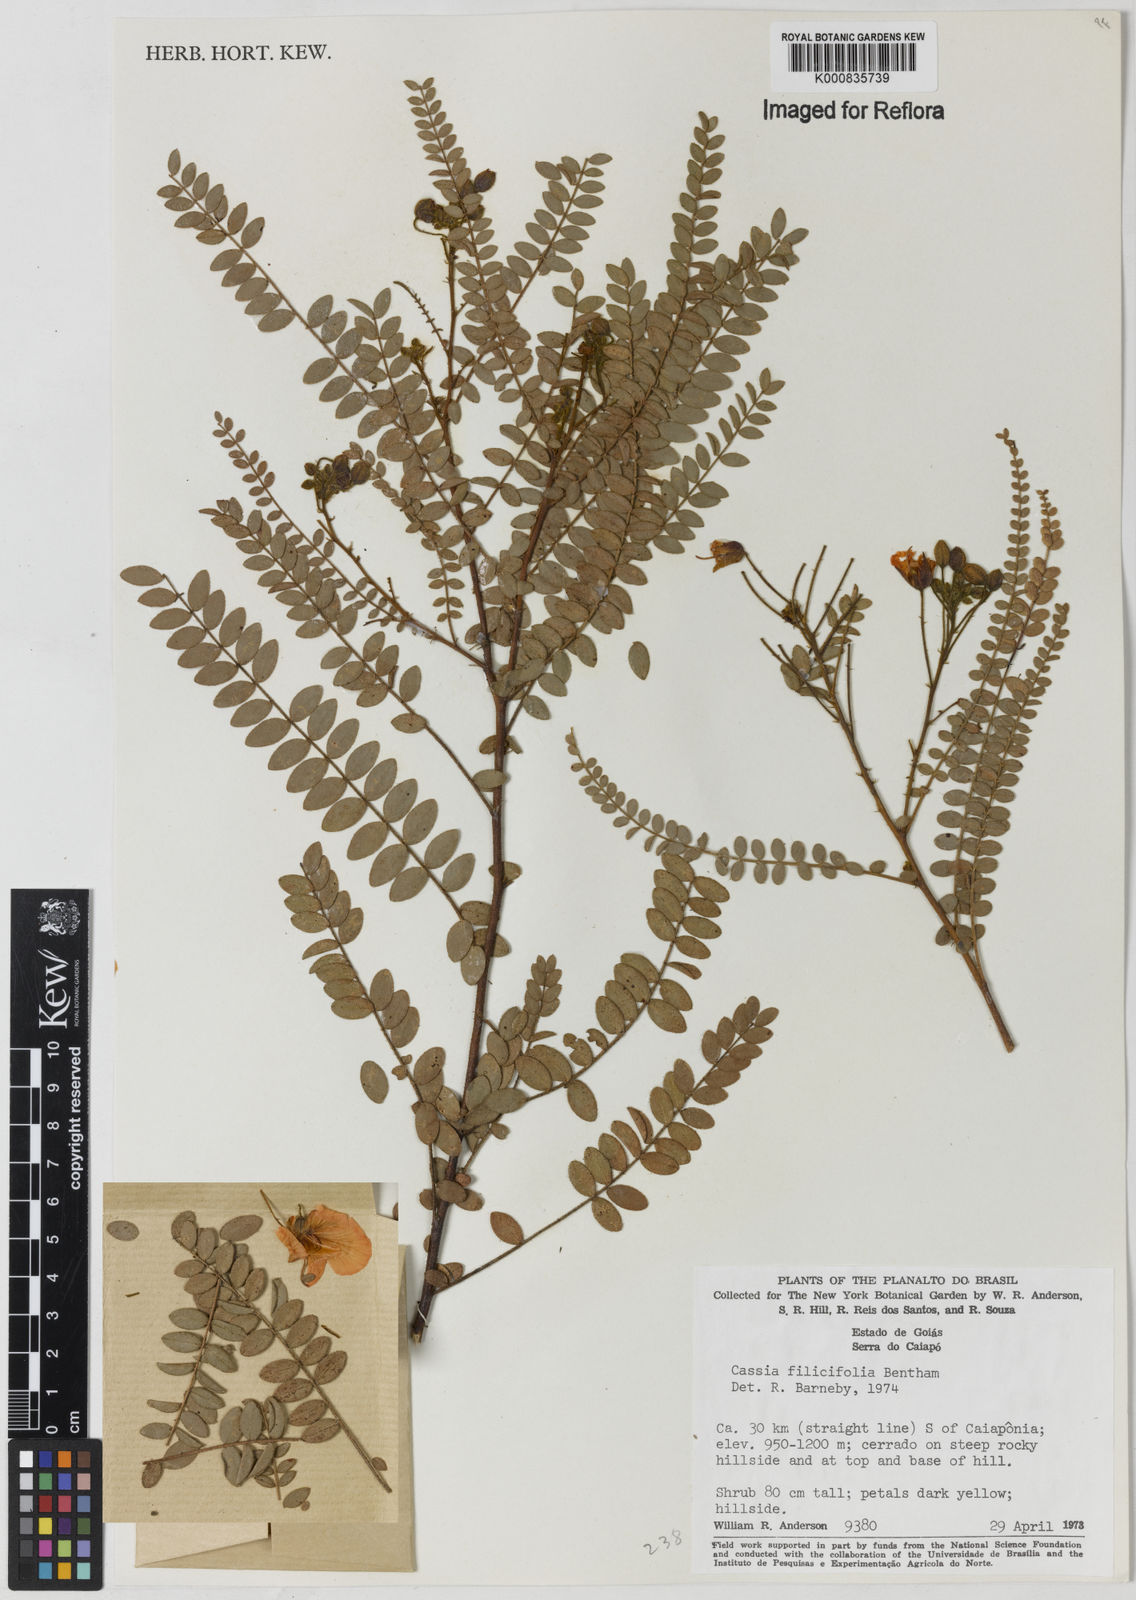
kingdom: Plantae
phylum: Tracheophyta
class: Magnoliopsida
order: Fabales
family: Fabaceae
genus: Chamaecrista
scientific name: Chamaecrista filicifolia
